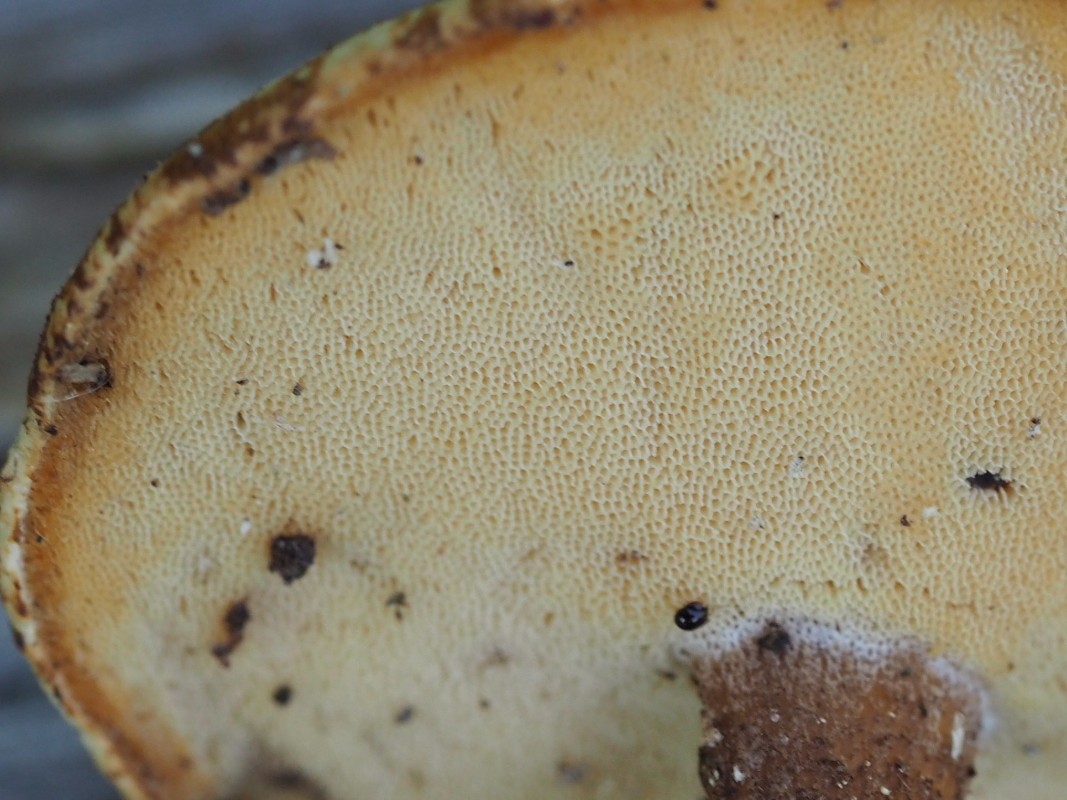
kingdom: Fungi
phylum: Basidiomycota
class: Agaricomycetes
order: Polyporales
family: Polyporaceae
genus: Lentinus
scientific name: Lentinus brumalis
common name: vinter-stilkporesvamp
